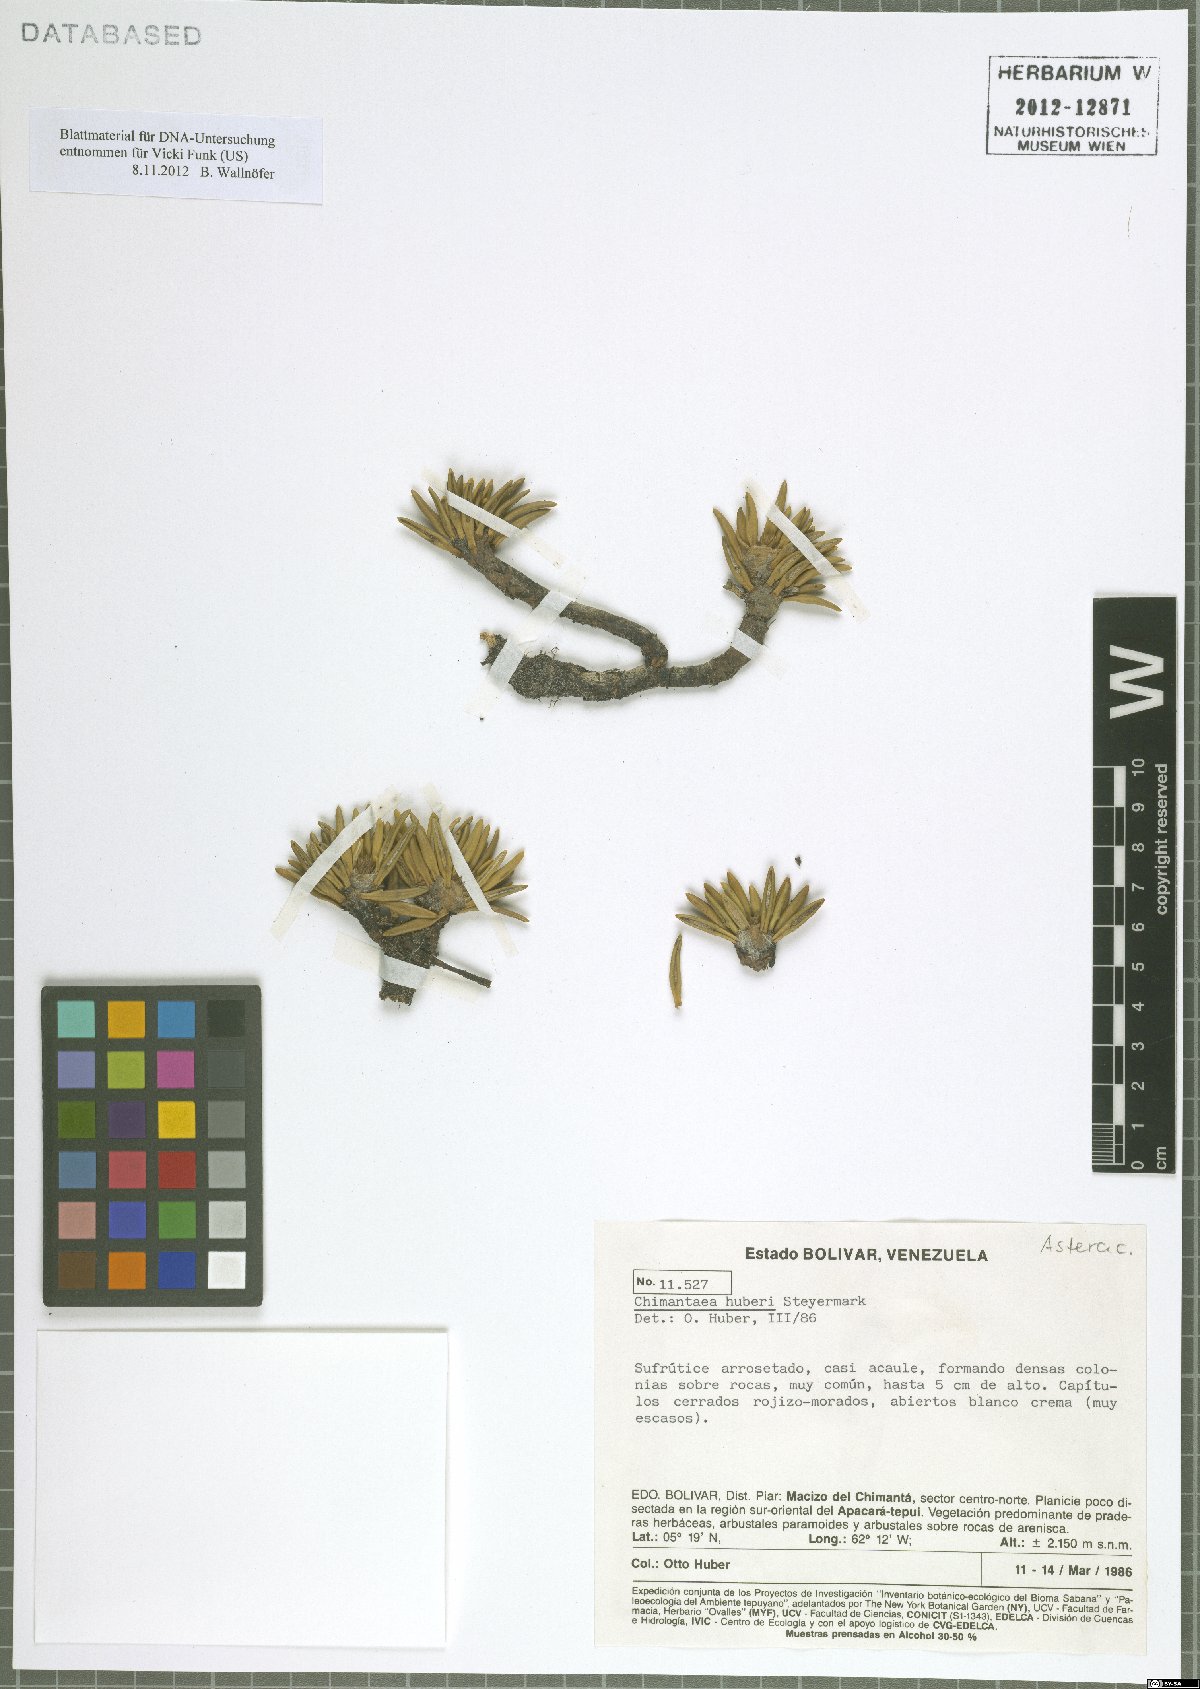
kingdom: Plantae
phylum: Tracheophyta
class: Magnoliopsida
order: Asterales
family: Asteraceae
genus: Chimantaea
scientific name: Chimantaea huberi
